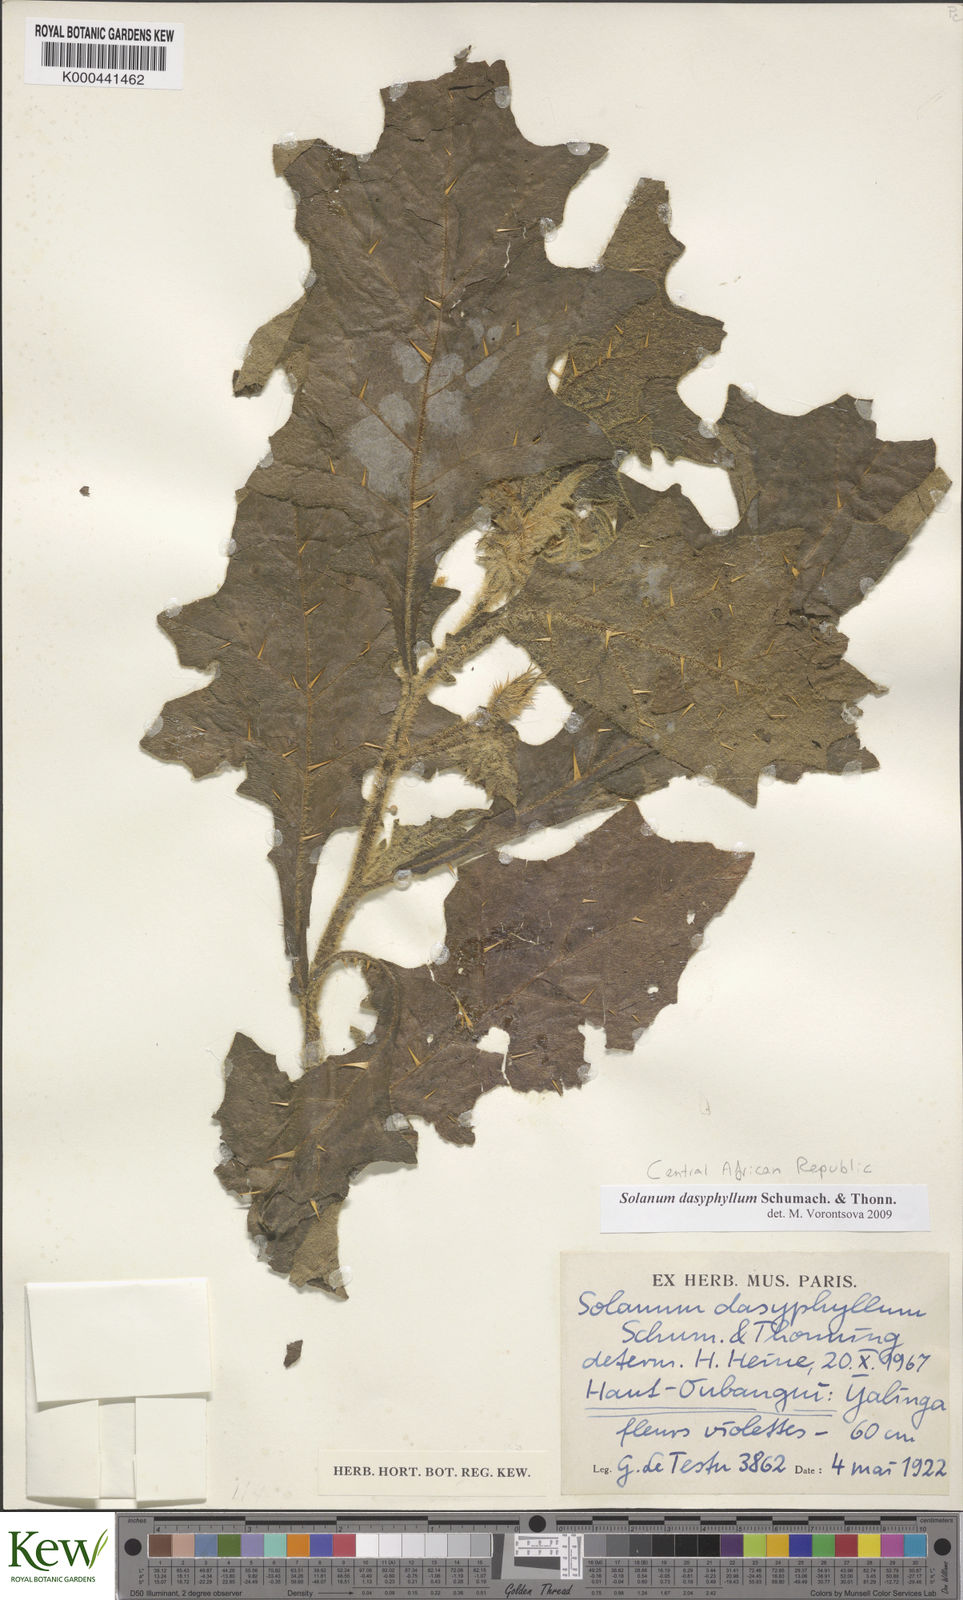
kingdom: Plantae
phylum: Tracheophyta
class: Magnoliopsida
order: Solanales
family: Solanaceae
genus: Solanum
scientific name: Solanum dasyphyllum
